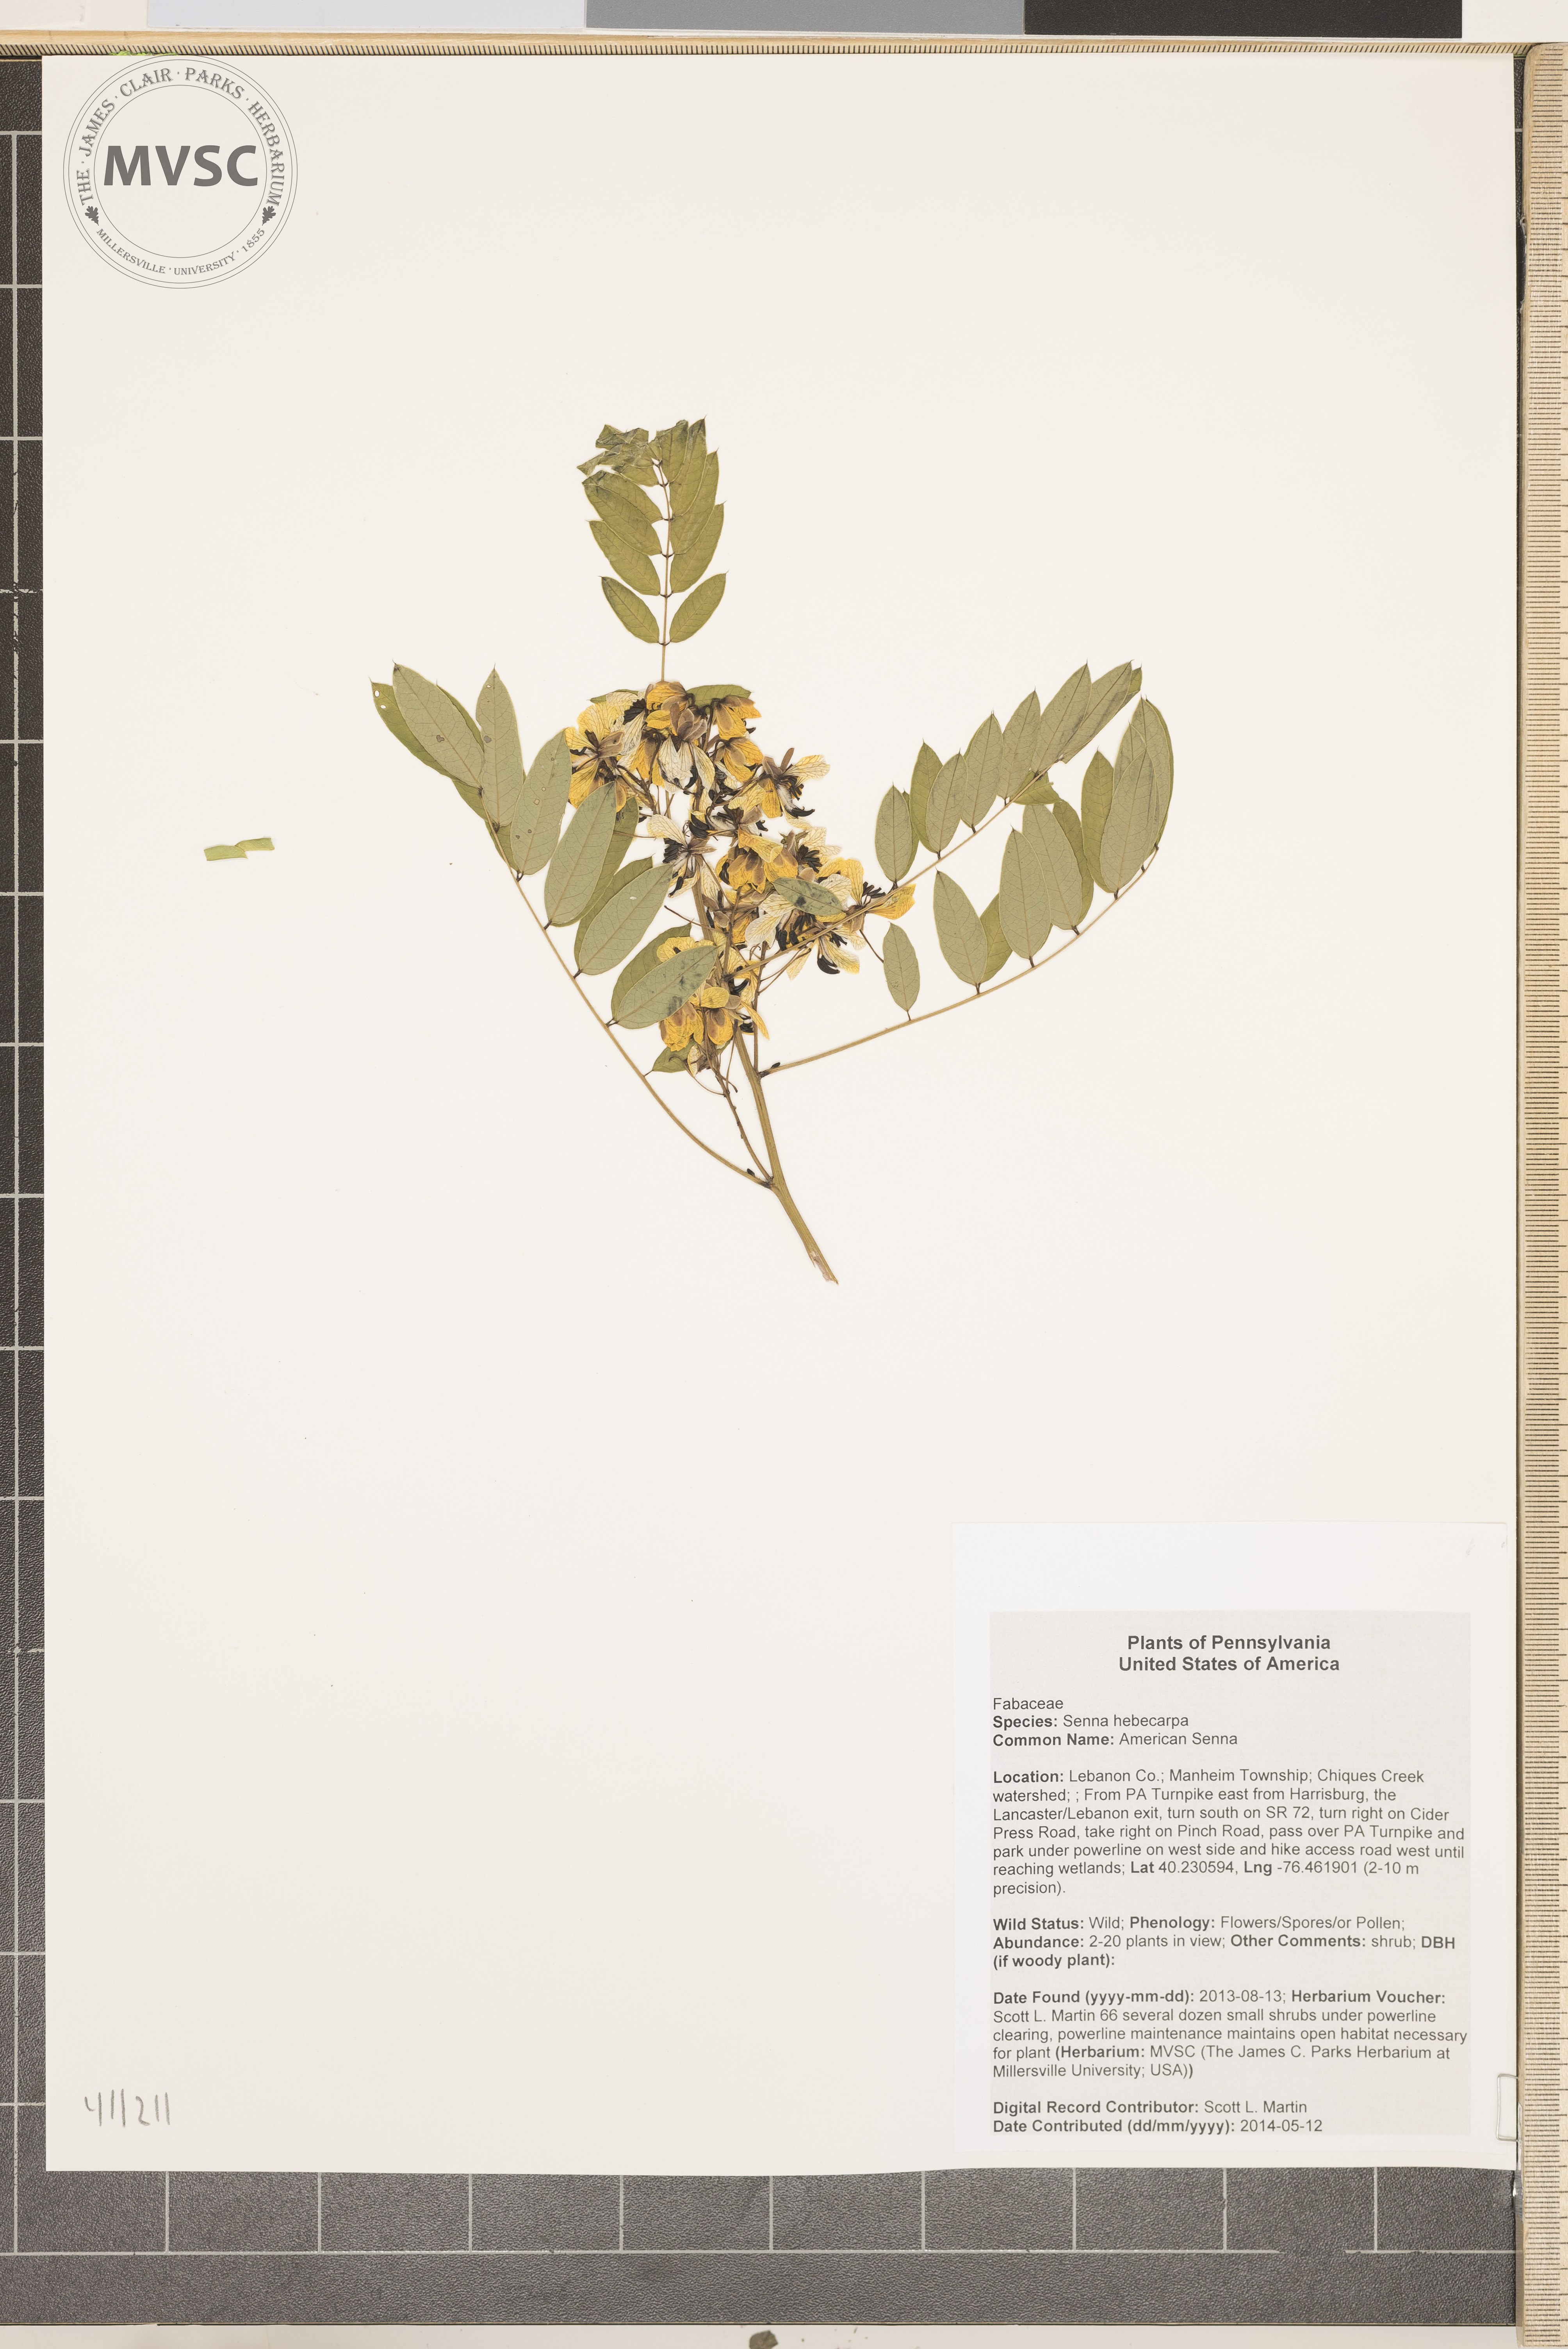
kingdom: Plantae
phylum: Tracheophyta
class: Magnoliopsida
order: Fabales
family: Fabaceae
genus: Senna
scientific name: Senna hebecarpa
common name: American Senna
